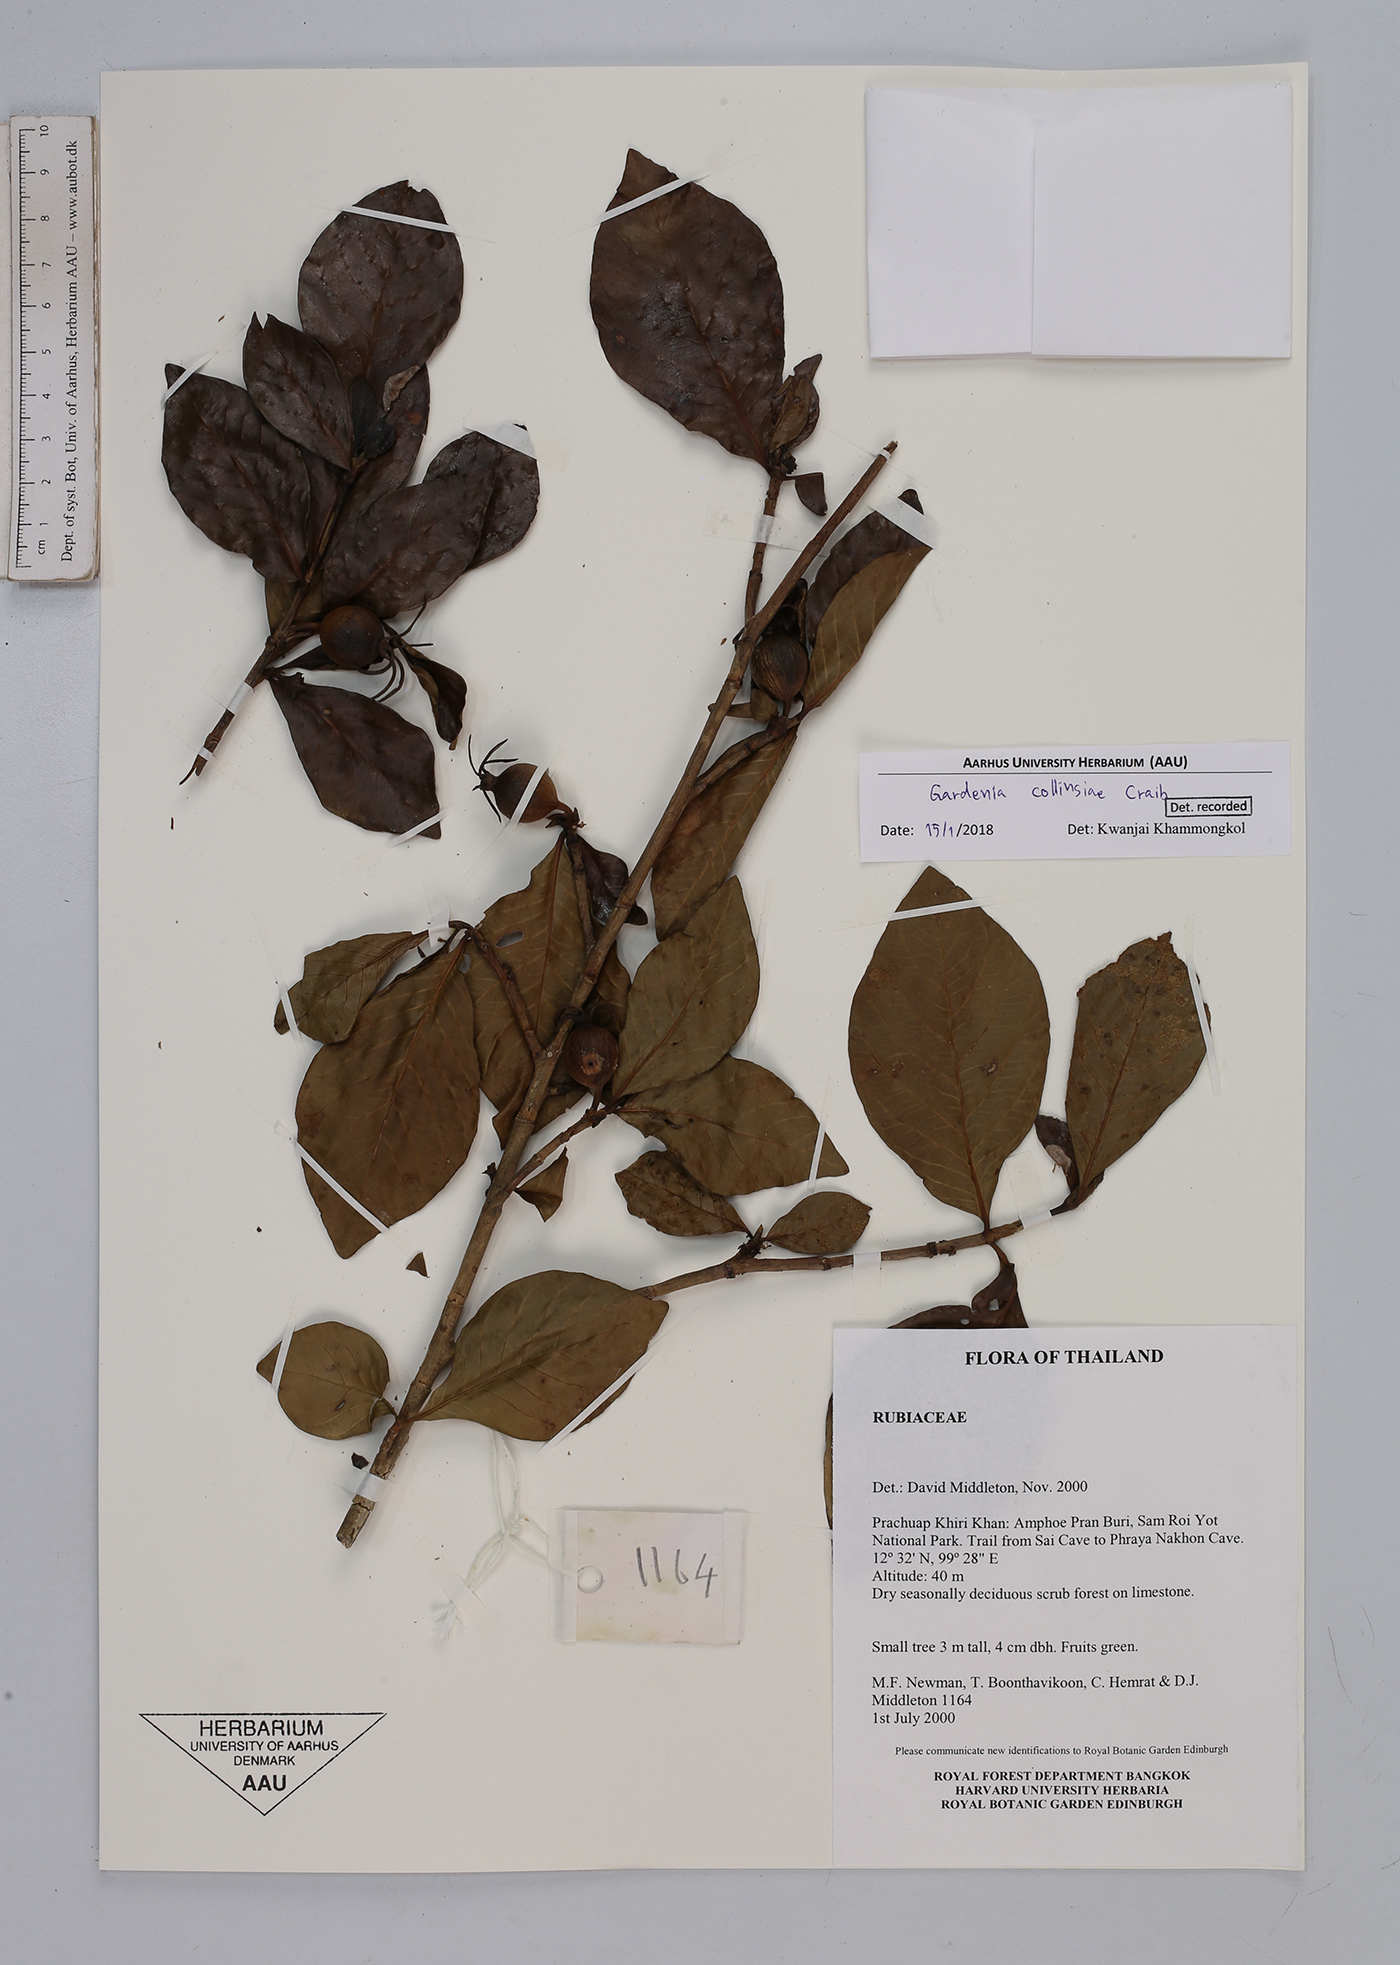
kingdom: Plantae
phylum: Tracheophyta
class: Magnoliopsida
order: Gentianales
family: Rubiaceae
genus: Gardenia
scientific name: Gardenia collinsae
